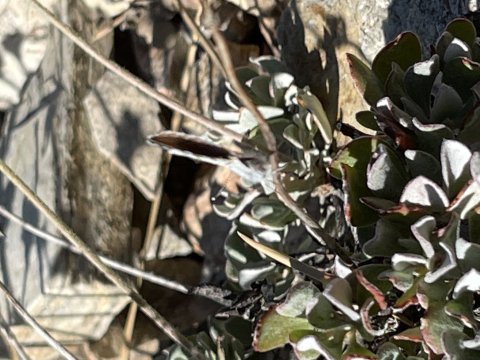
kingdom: Animalia
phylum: Arthropoda
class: Insecta
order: Lepidoptera
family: Lycaenidae
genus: Plebejus
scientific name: Plebejus lupini
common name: Lupine Blue
